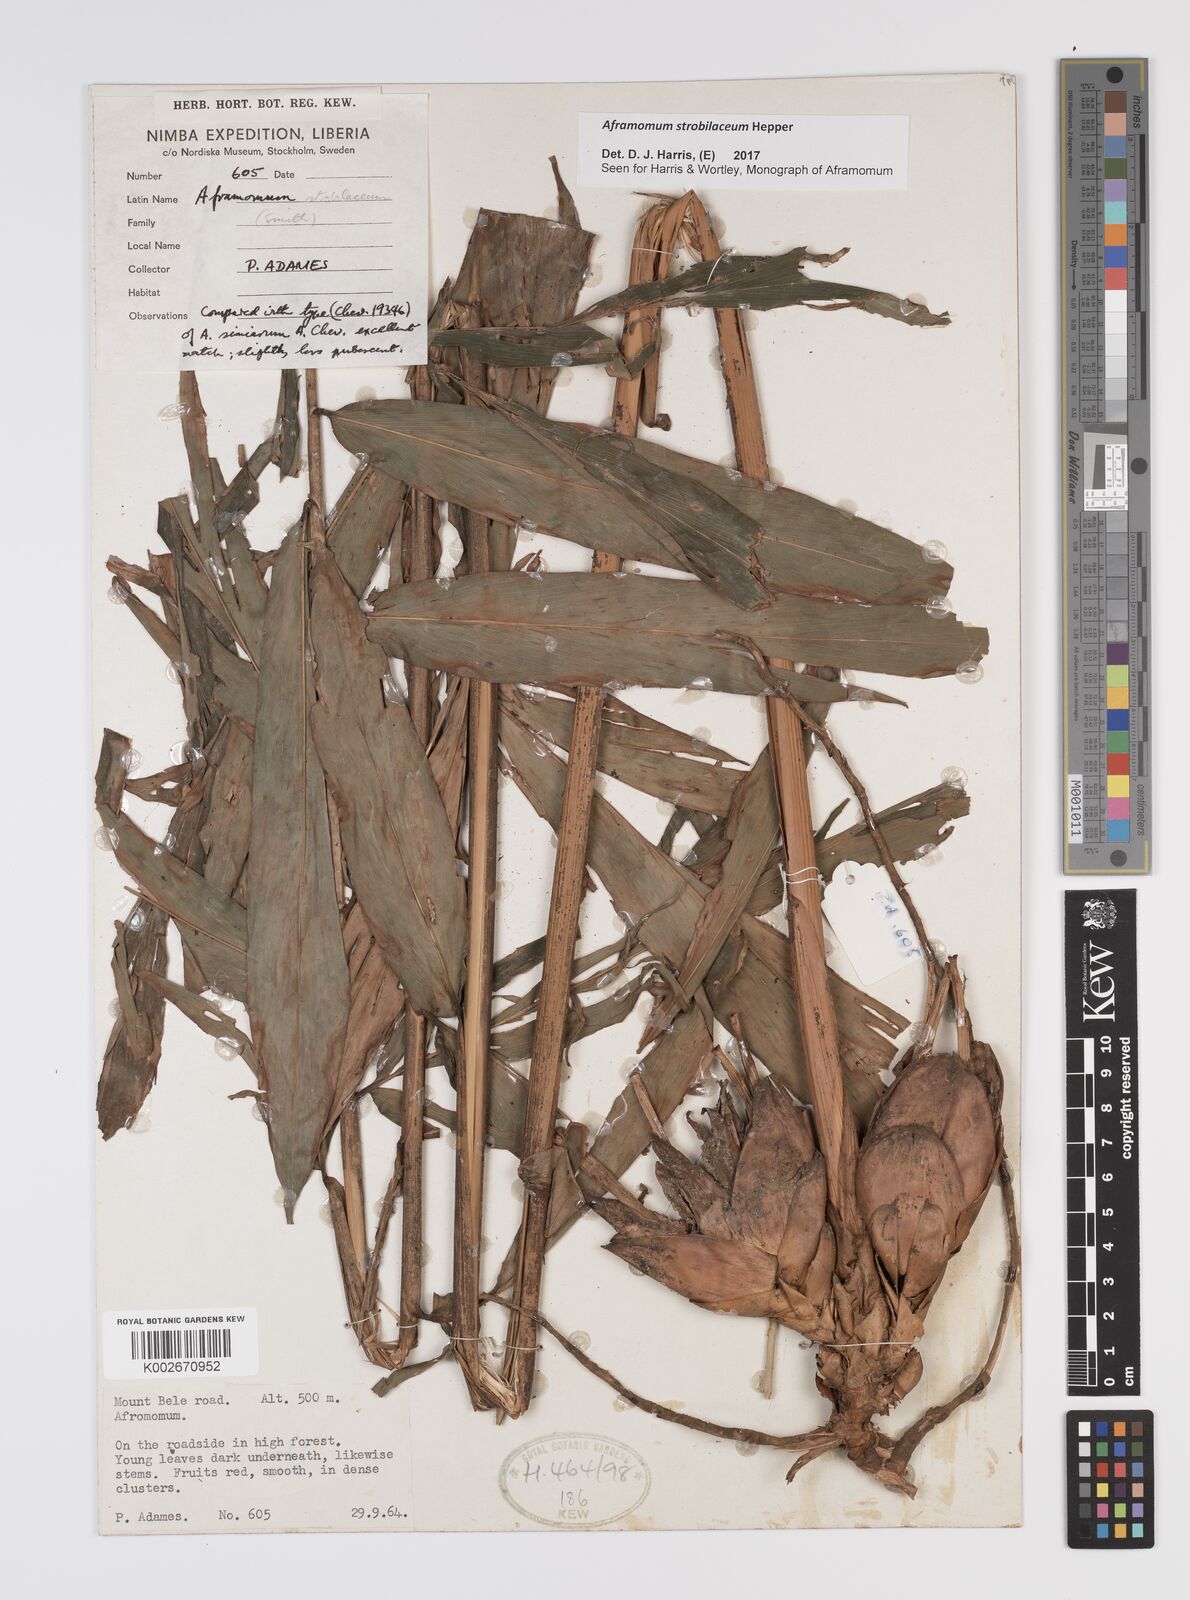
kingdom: Plantae
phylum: Tracheophyta
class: Liliopsida
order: Zingiberales
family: Zingiberaceae
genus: Aframomum
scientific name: Aframomum strobilaceum
